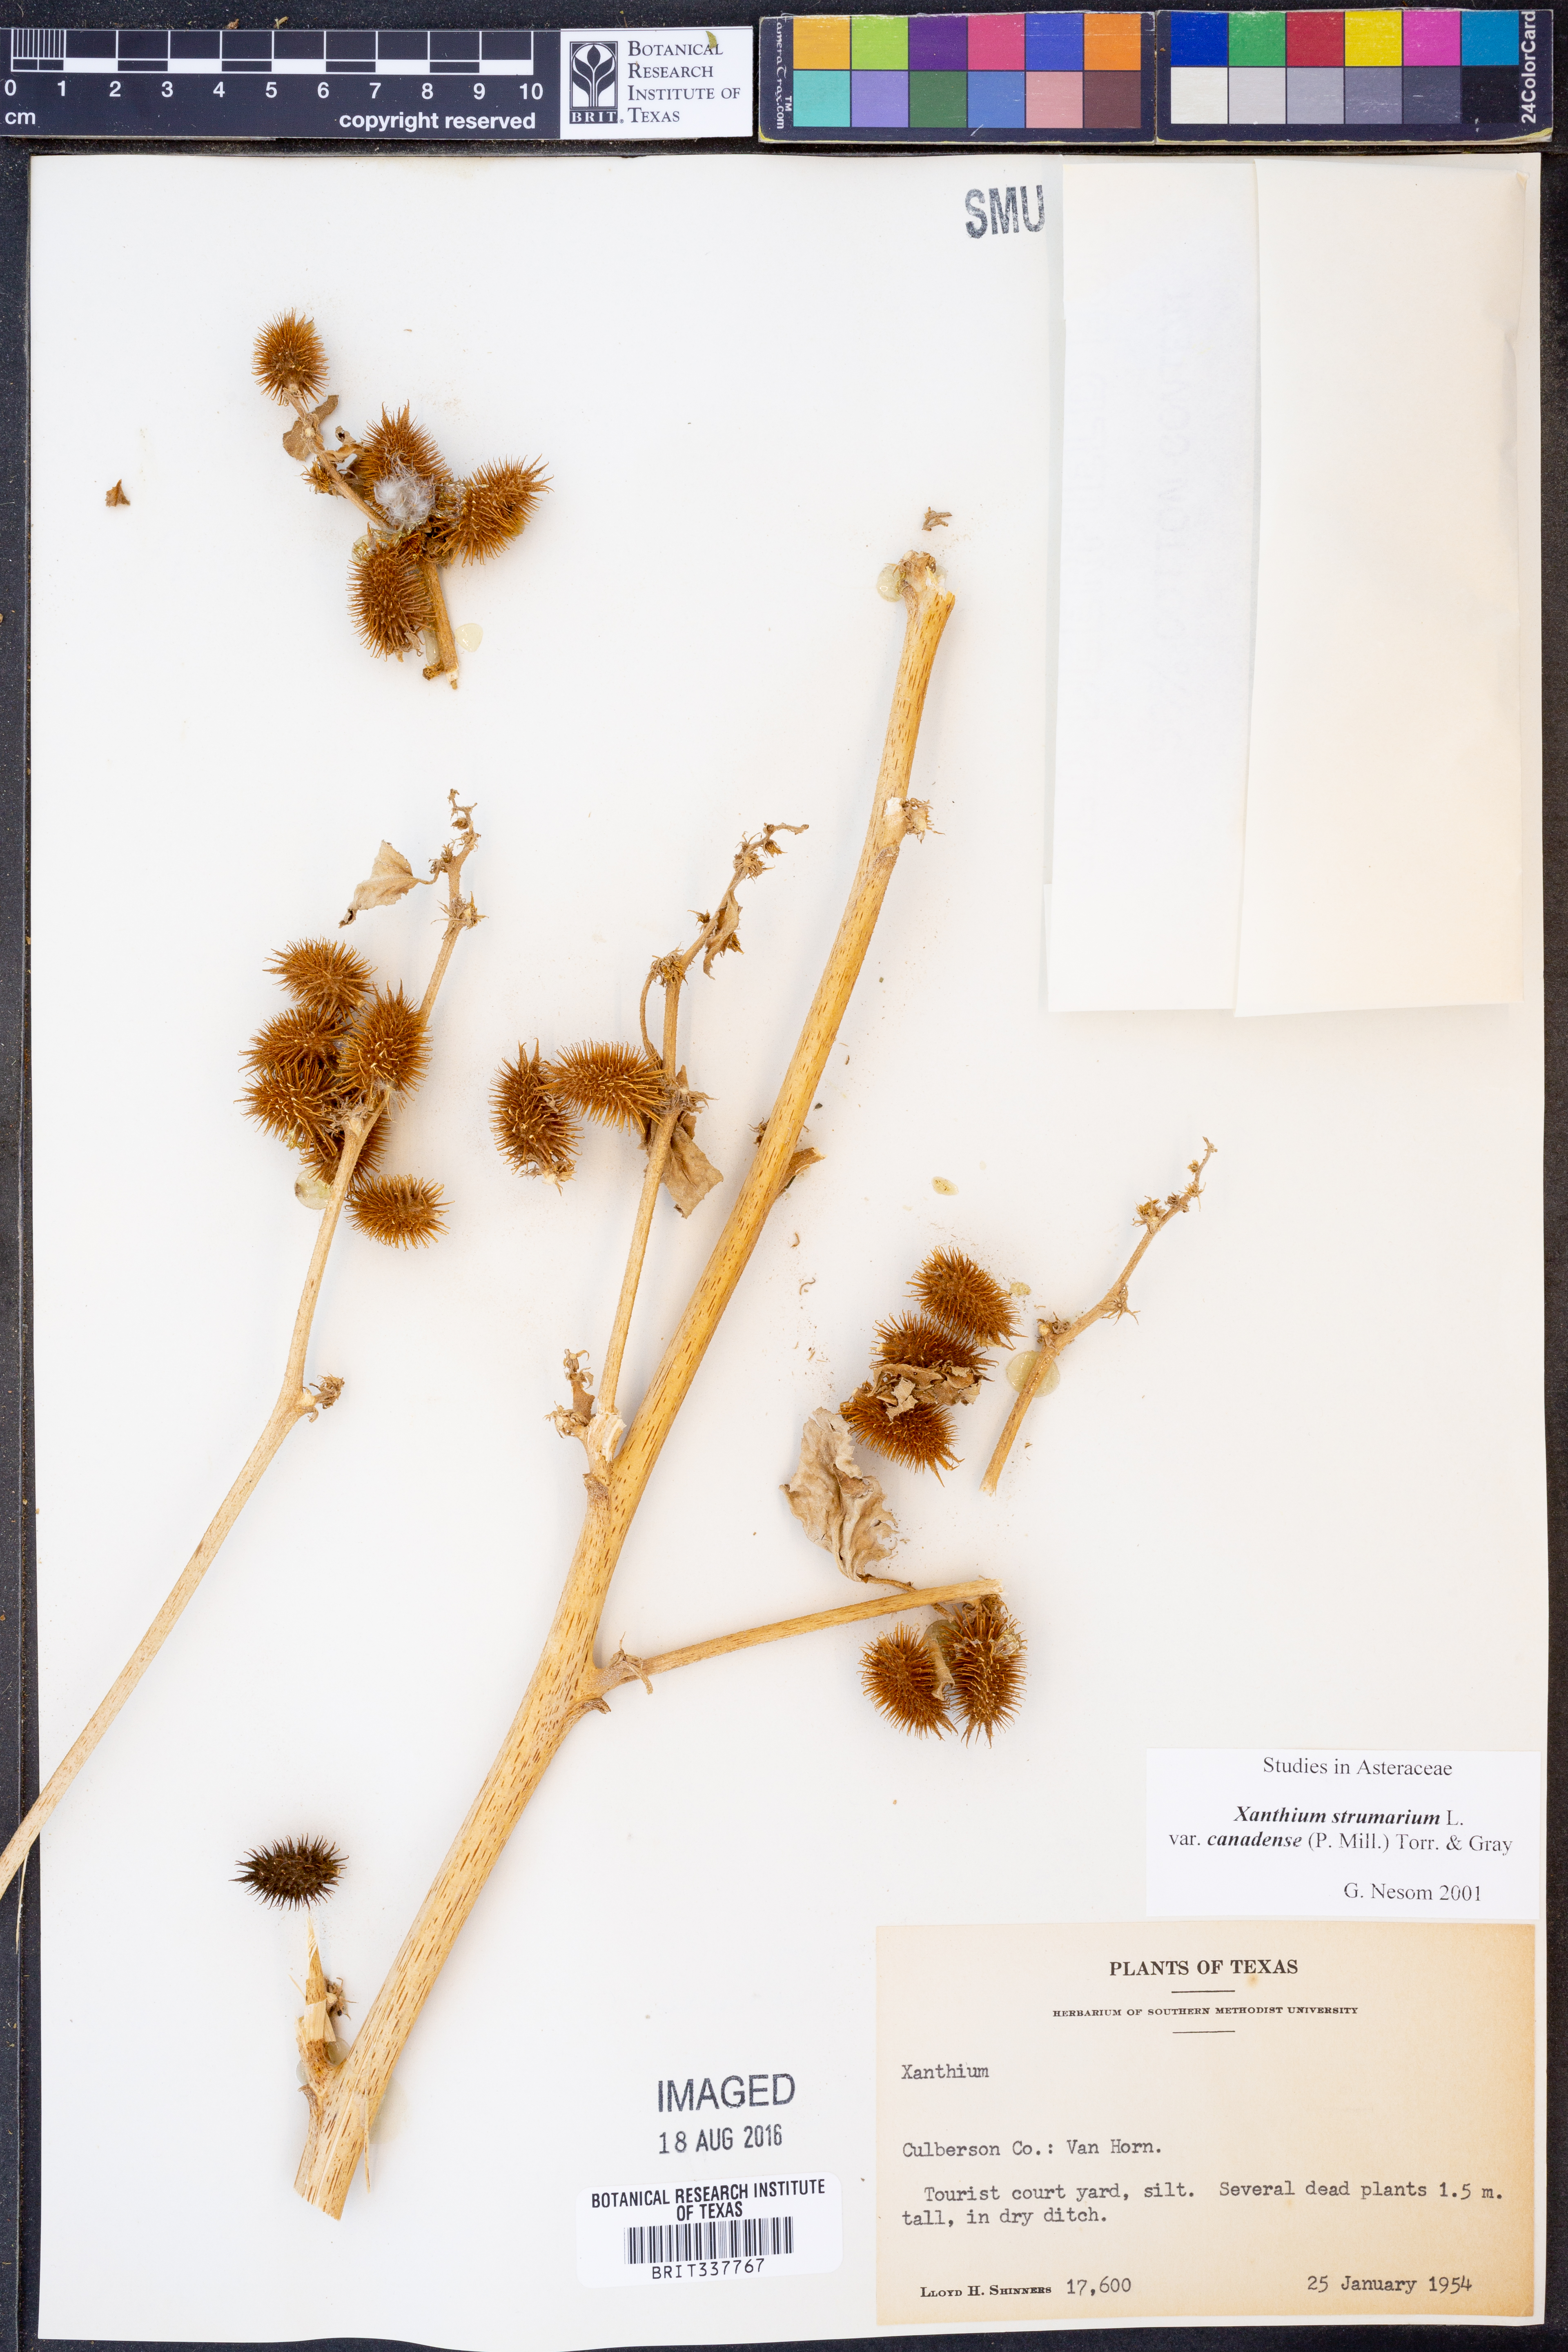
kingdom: Plantae
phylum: Tracheophyta
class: Magnoliopsida
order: Asterales
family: Asteraceae
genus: Xanthium
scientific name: Xanthium orientale
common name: Californian burr
